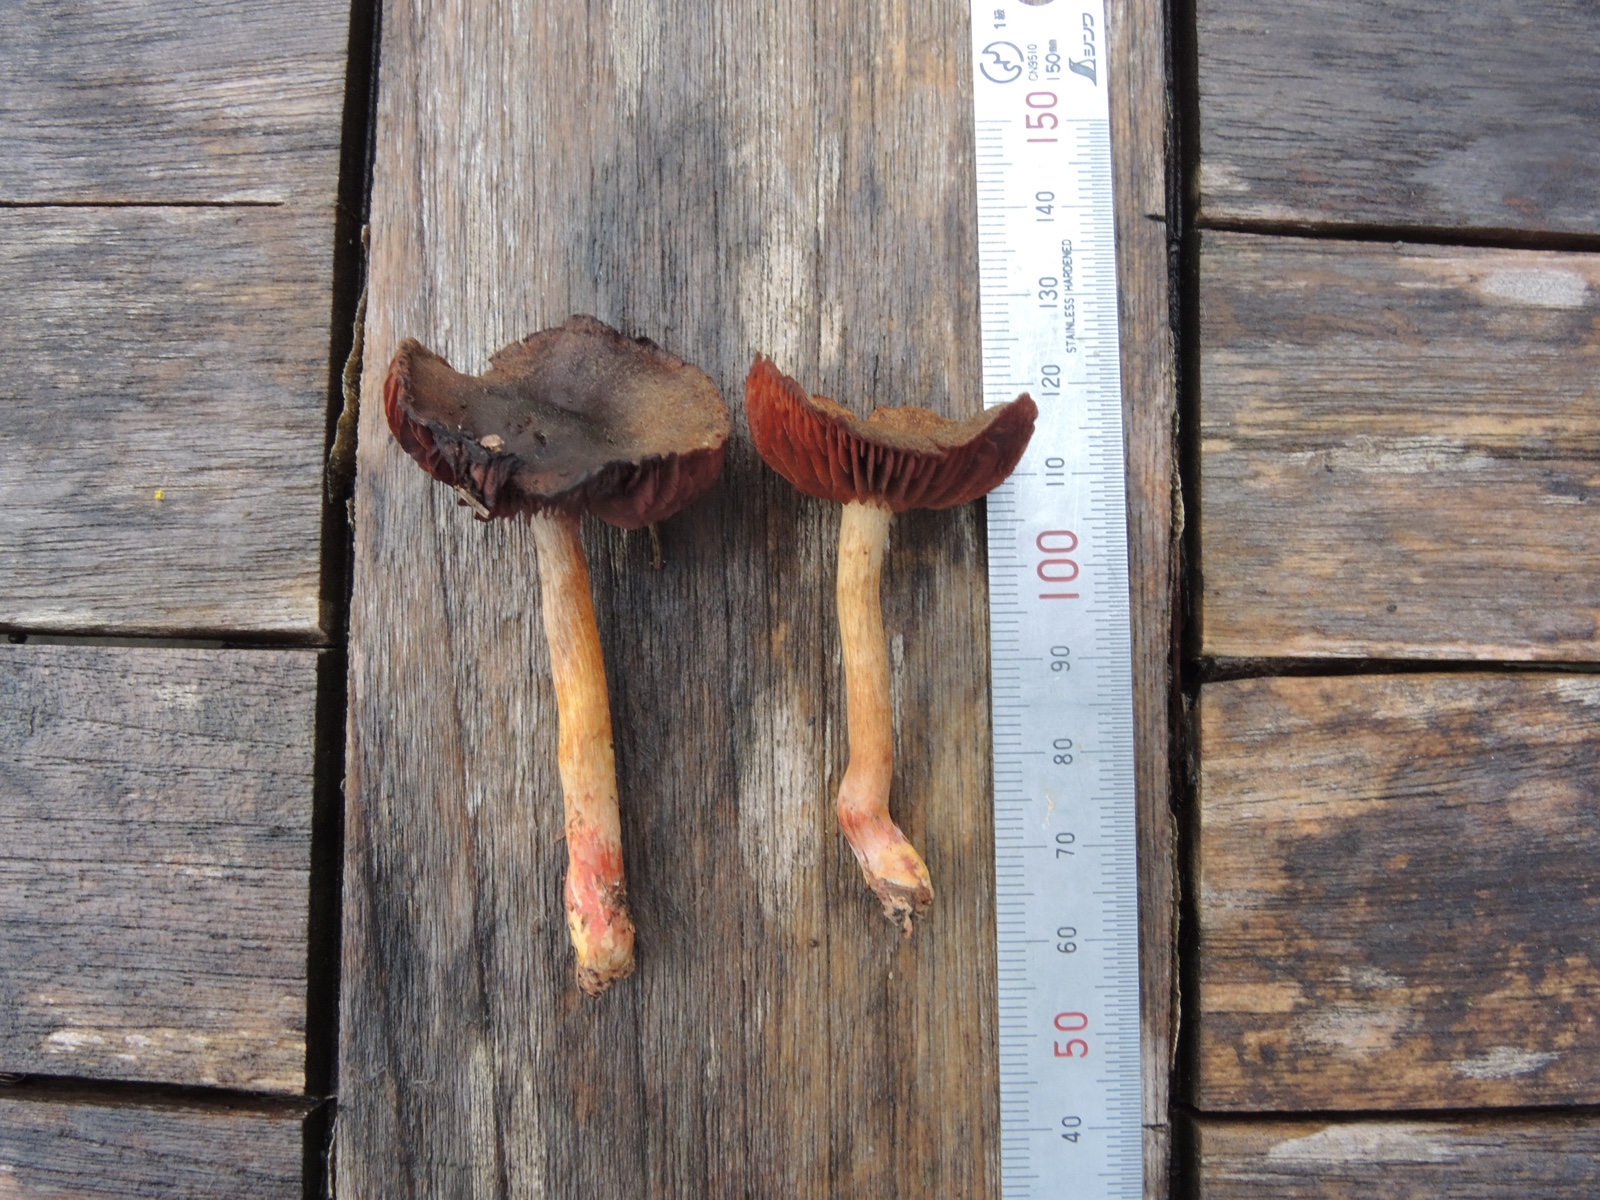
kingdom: Fungi
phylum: Basidiomycota
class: Agaricomycetes
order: Agaricales
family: Cortinariaceae
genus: Cortinarius
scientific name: Cortinarius
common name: cinnoberbladet slørhat
